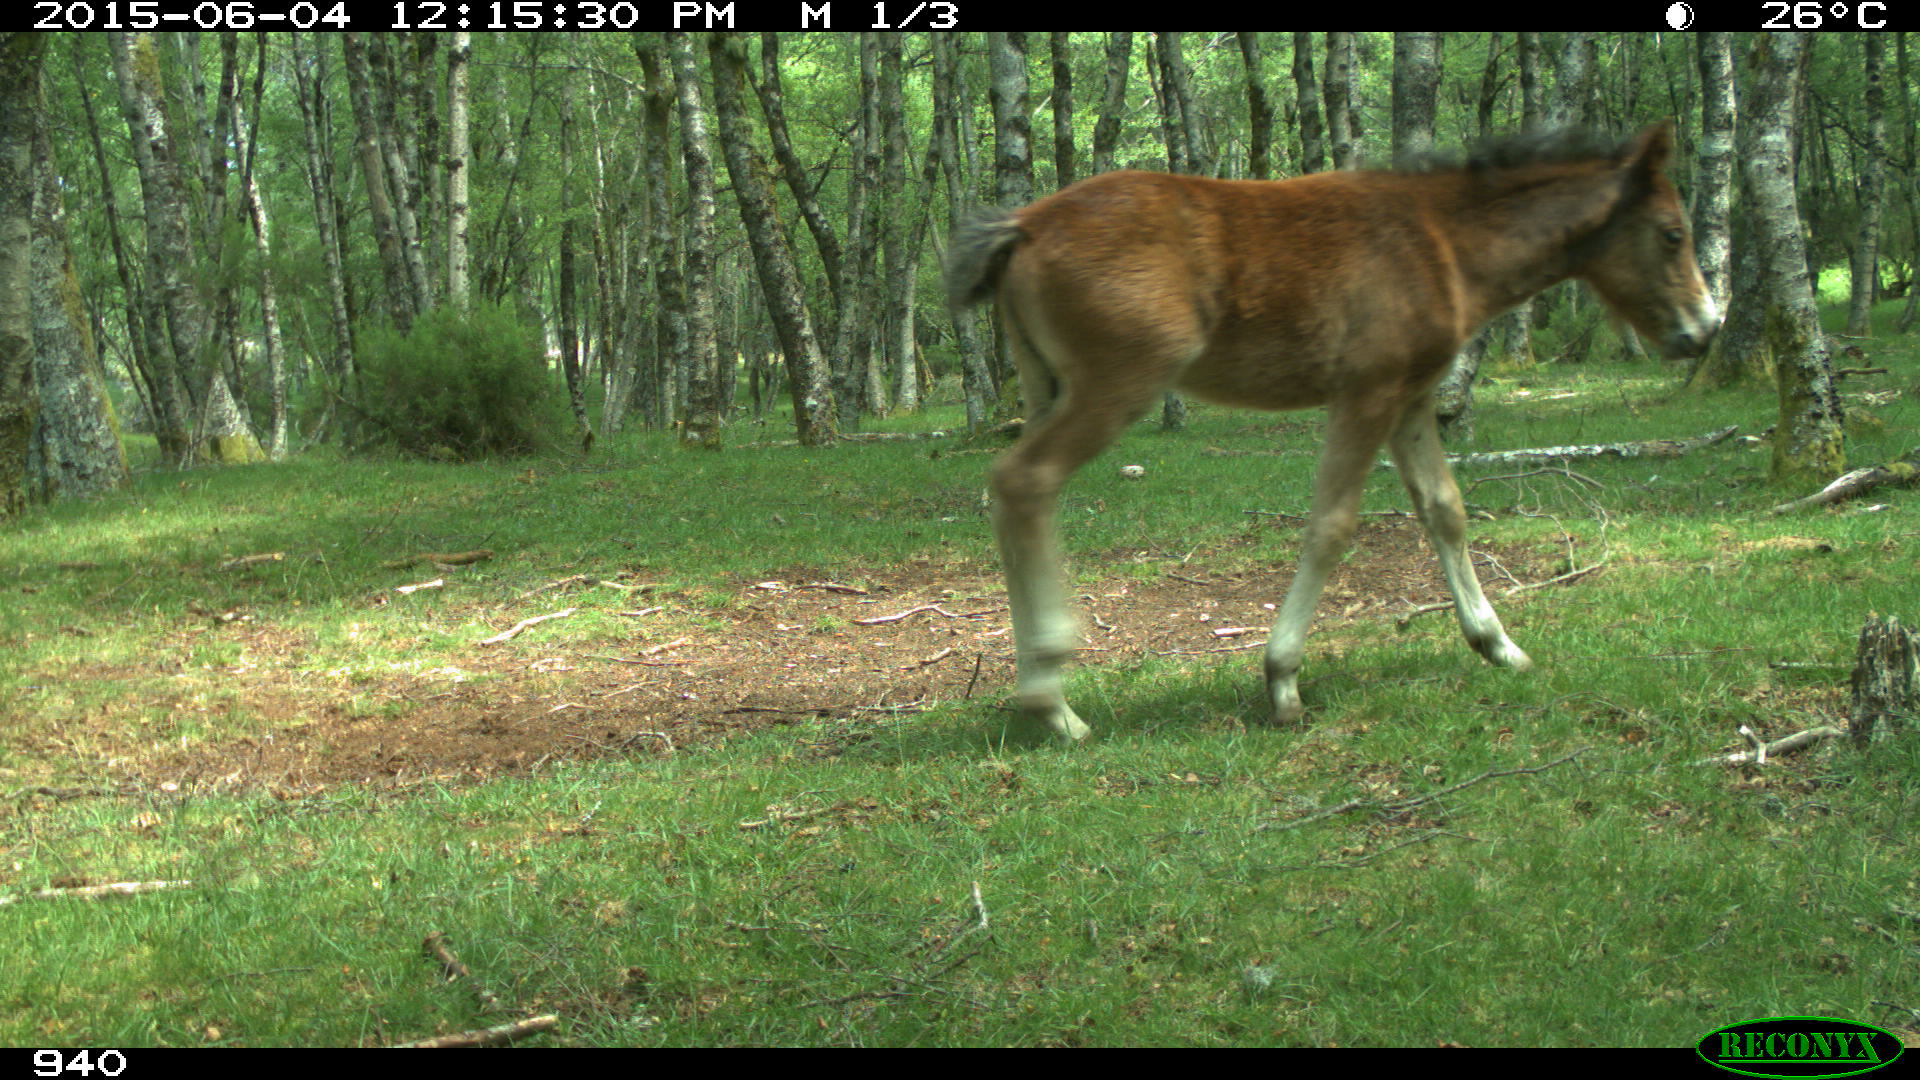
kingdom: Animalia
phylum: Chordata
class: Mammalia
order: Perissodactyla
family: Equidae
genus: Equus
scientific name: Equus caballus
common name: Horse
